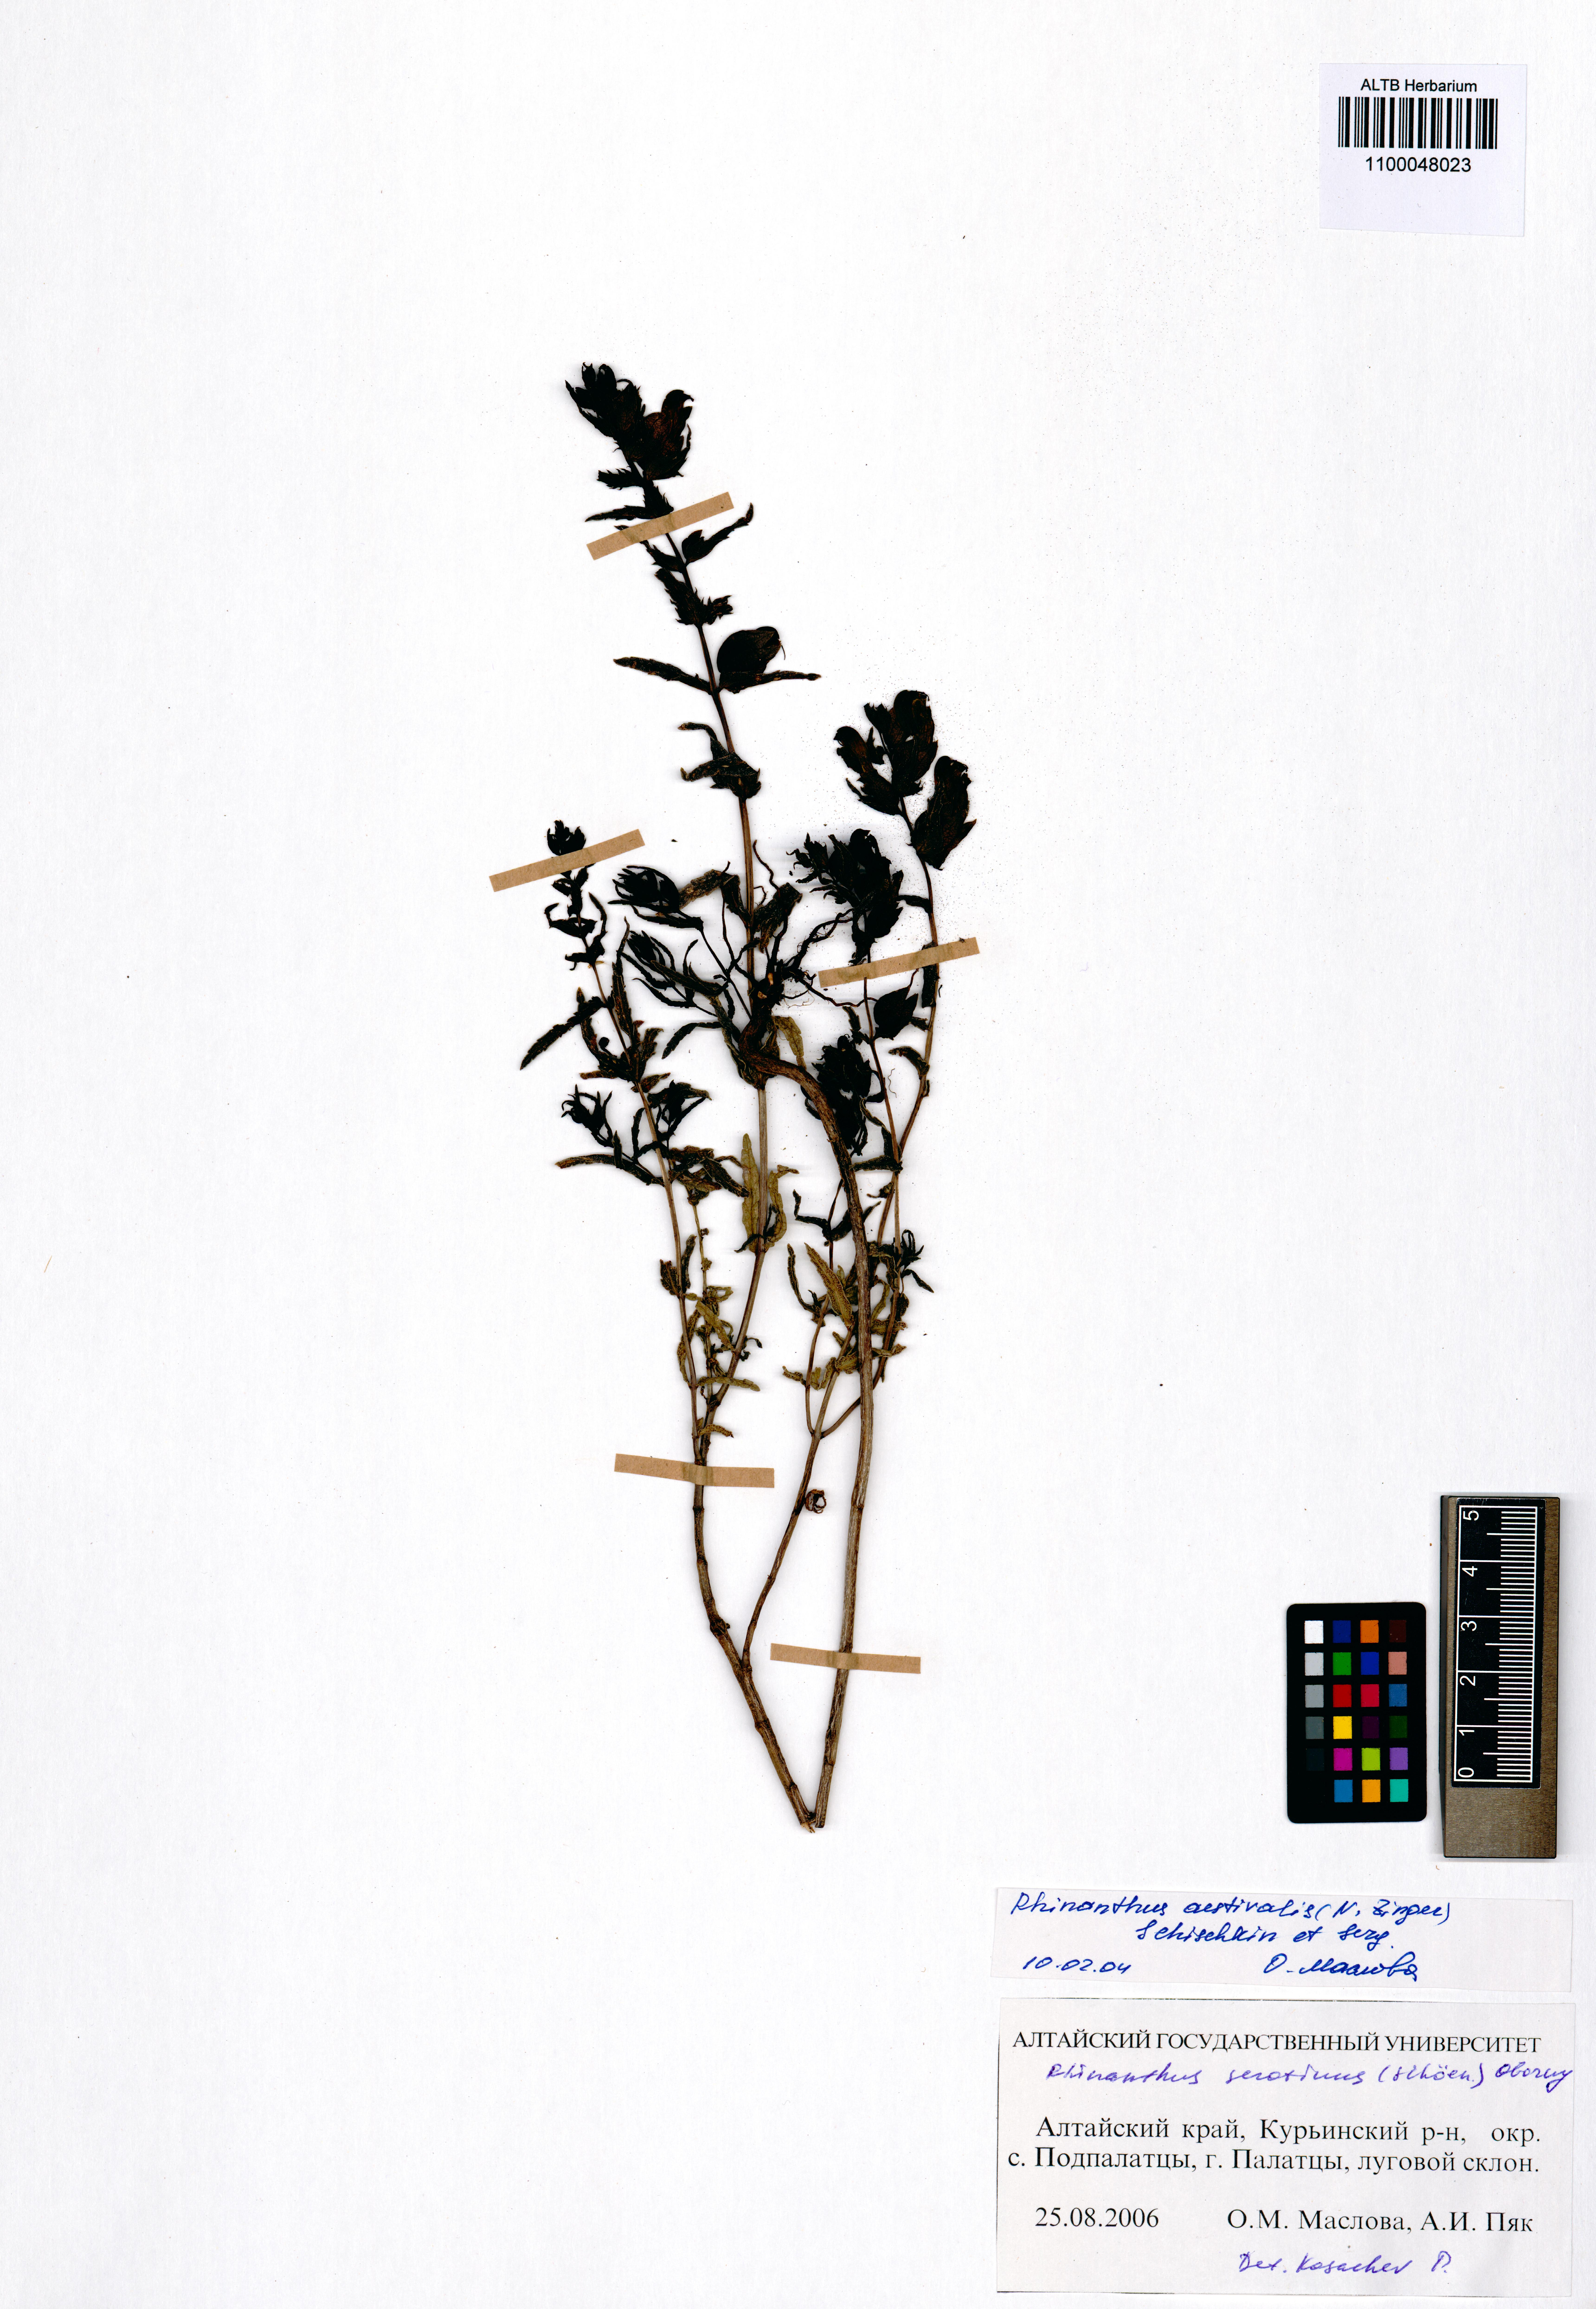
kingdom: Plantae
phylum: Tracheophyta
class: Magnoliopsida
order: Lamiales
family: Orobanchaceae
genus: Rhinanthus
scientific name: Rhinanthus serotinus
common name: Late-flowering yellow rattle
